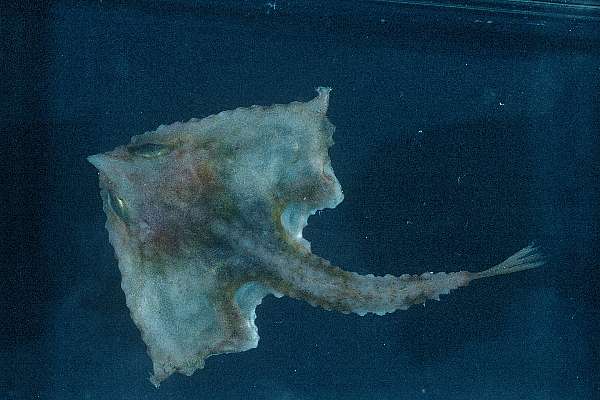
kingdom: Animalia
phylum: Chordata
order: Lophiiformes
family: Ogcocephalidae
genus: Malthopsis
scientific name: Malthopsis mitrigera
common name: Twospine batfish
